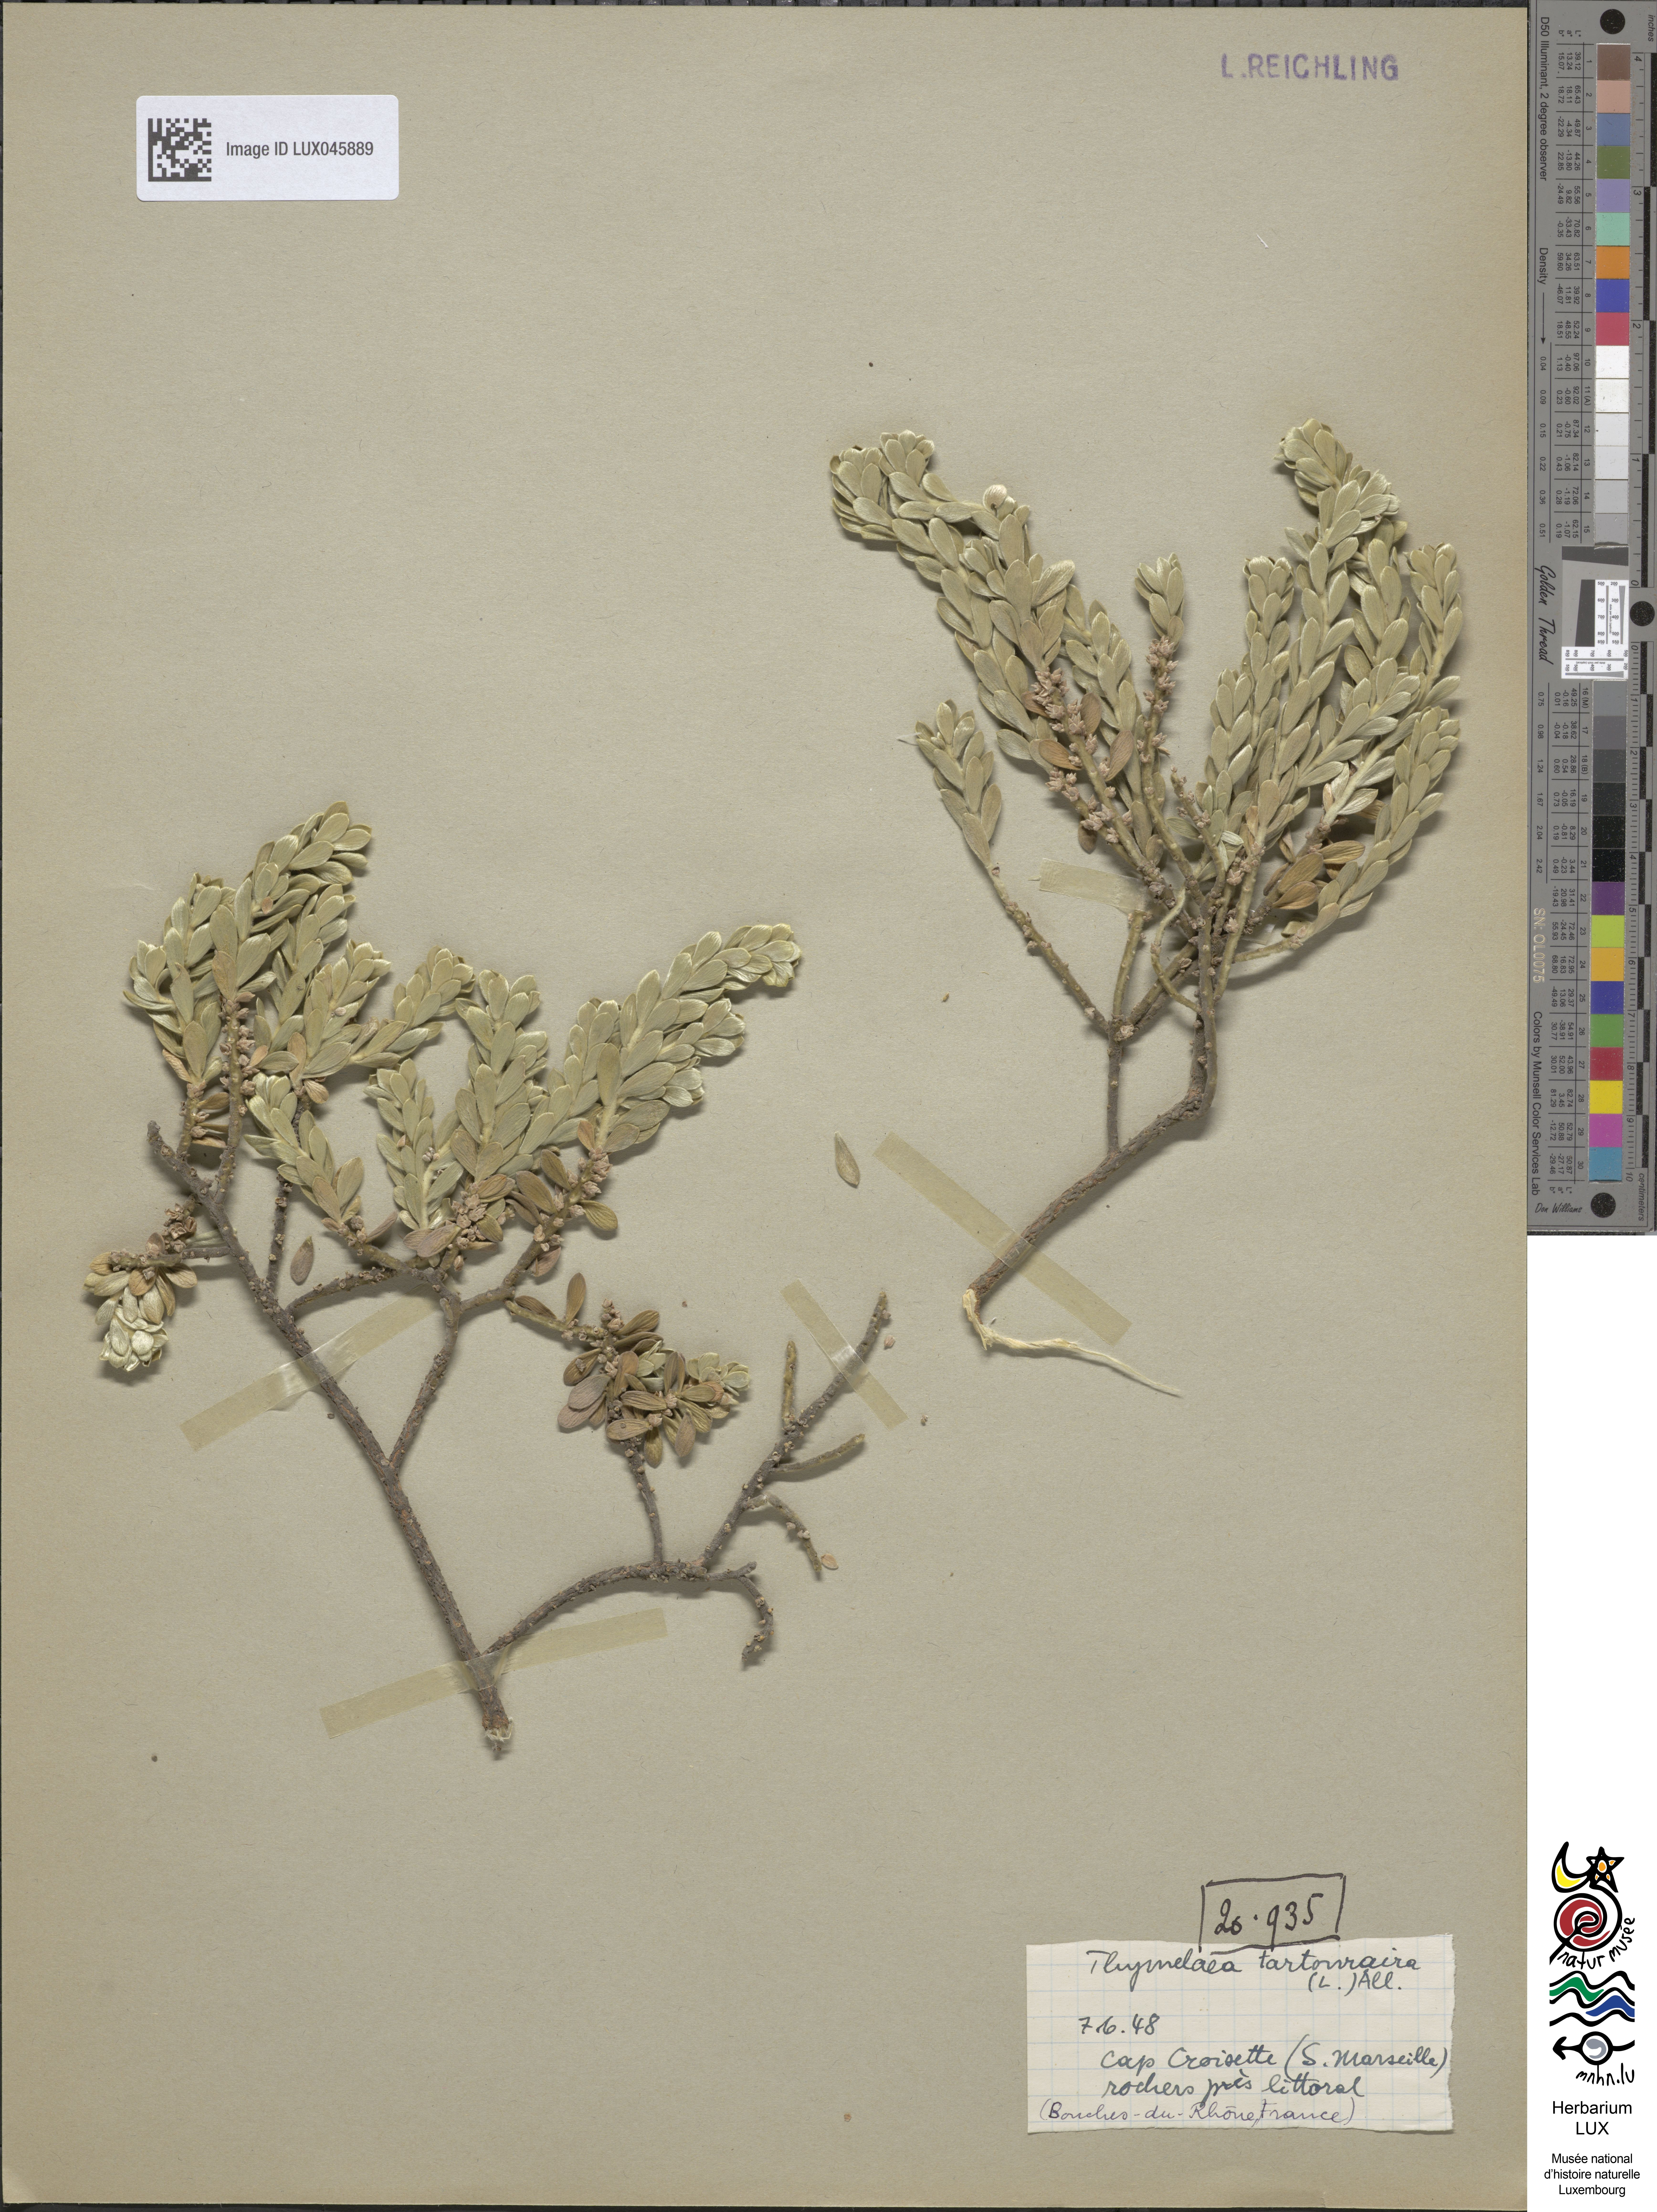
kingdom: Plantae
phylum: Tracheophyta
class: Magnoliopsida
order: Malvales
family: Thymelaeaceae
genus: Thymelaea
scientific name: Thymelaea tartonraira
